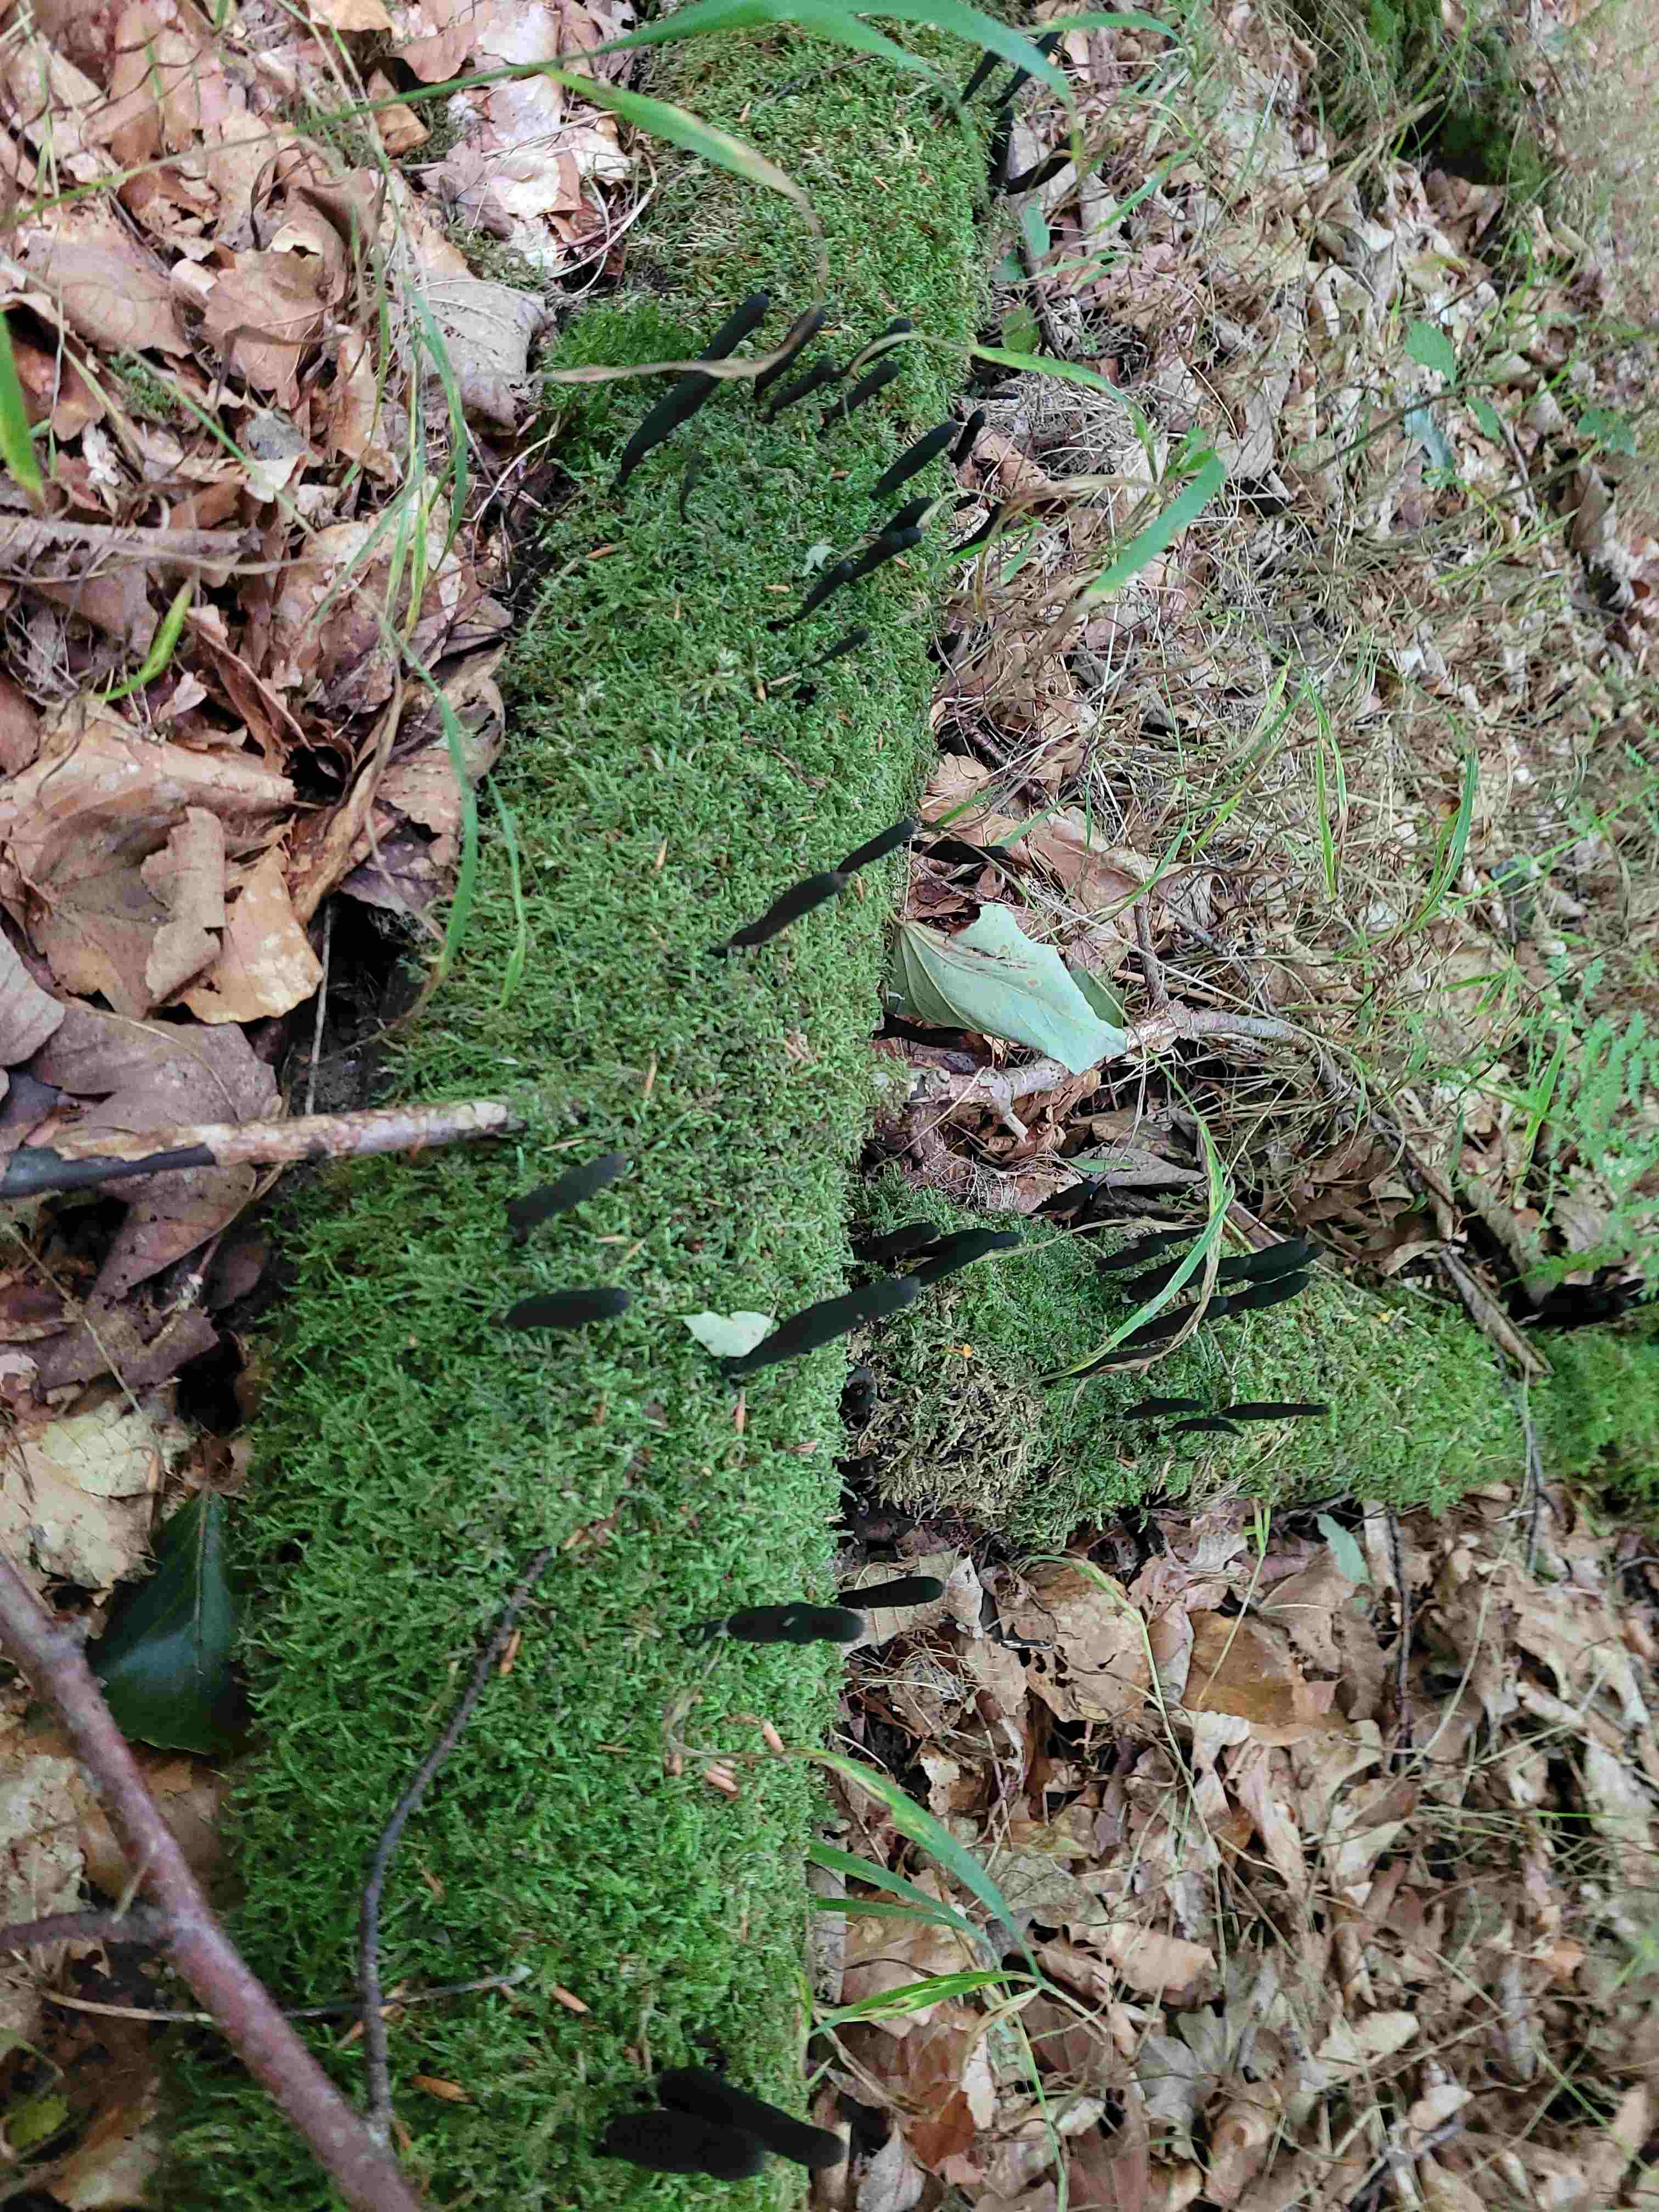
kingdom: Fungi
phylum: Ascomycota
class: Sordariomycetes
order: Xylariales
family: Xylariaceae
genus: Xylaria
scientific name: Xylaria longipes
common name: slank stødsvamp
